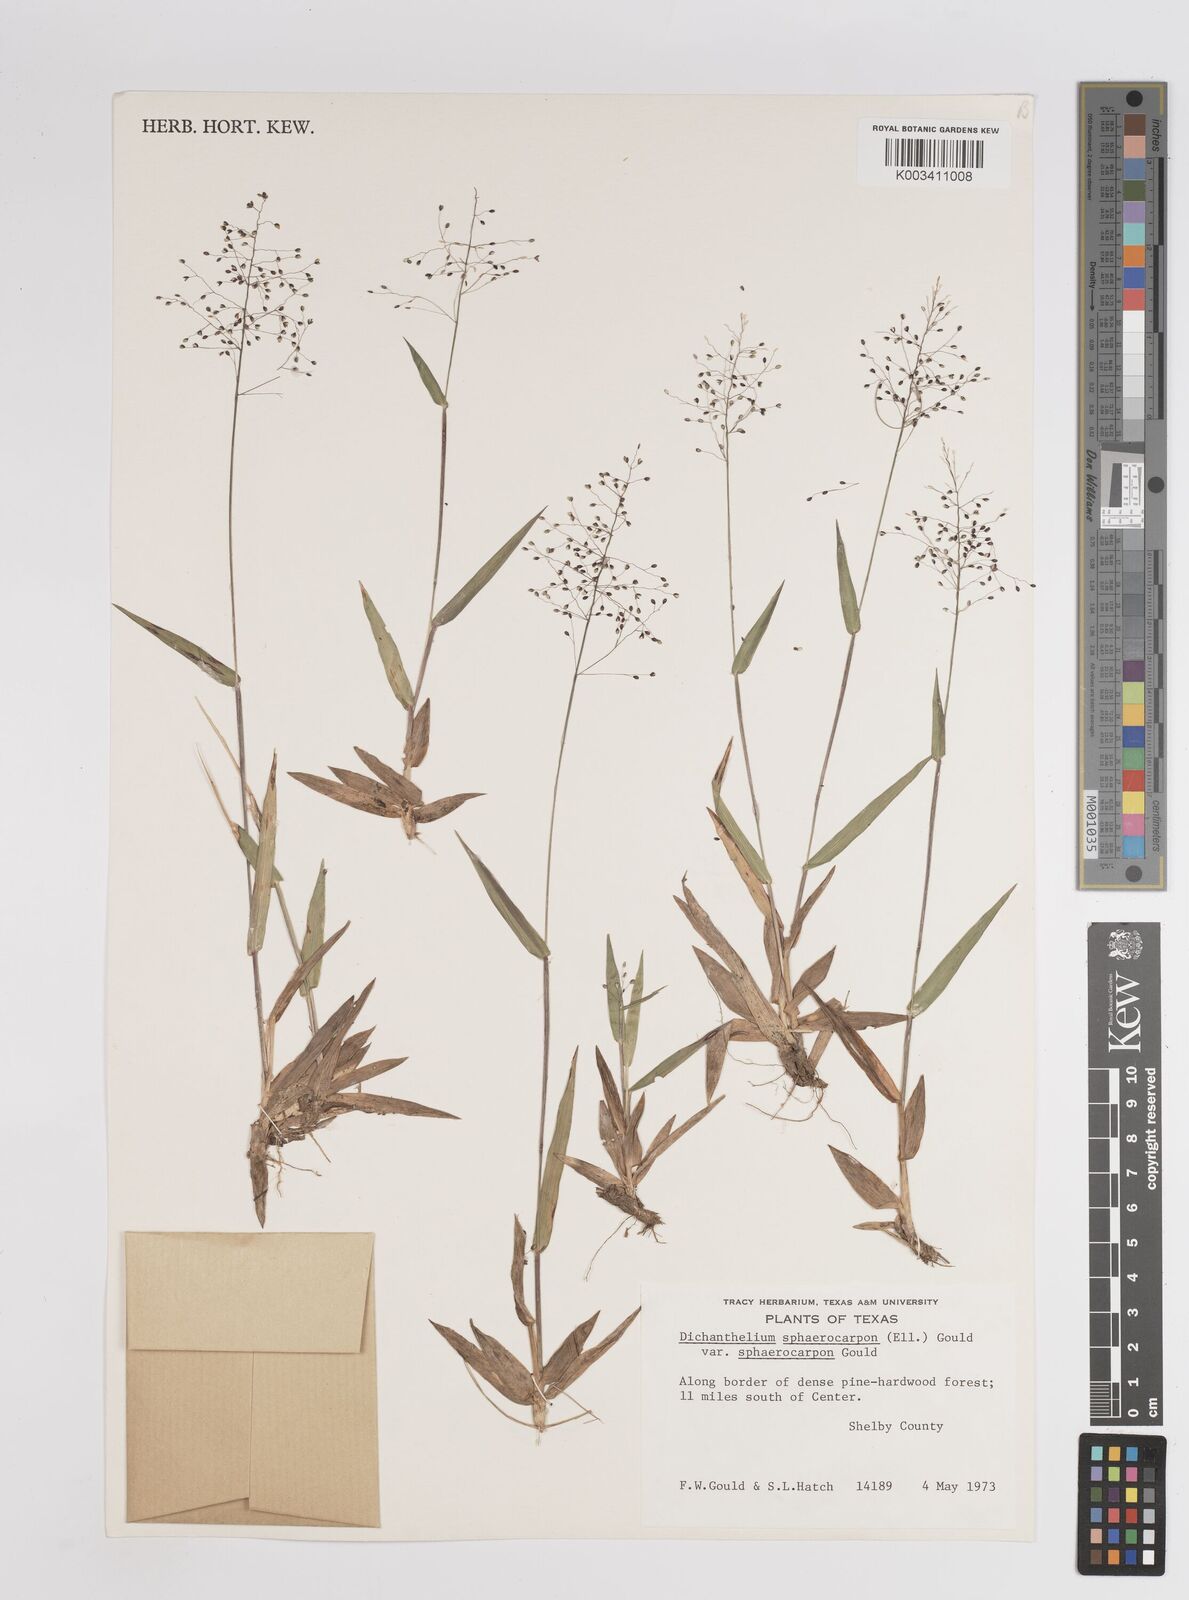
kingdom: Plantae
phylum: Tracheophyta
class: Liliopsida
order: Poales
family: Poaceae
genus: Setaria
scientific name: Setaria tenax
